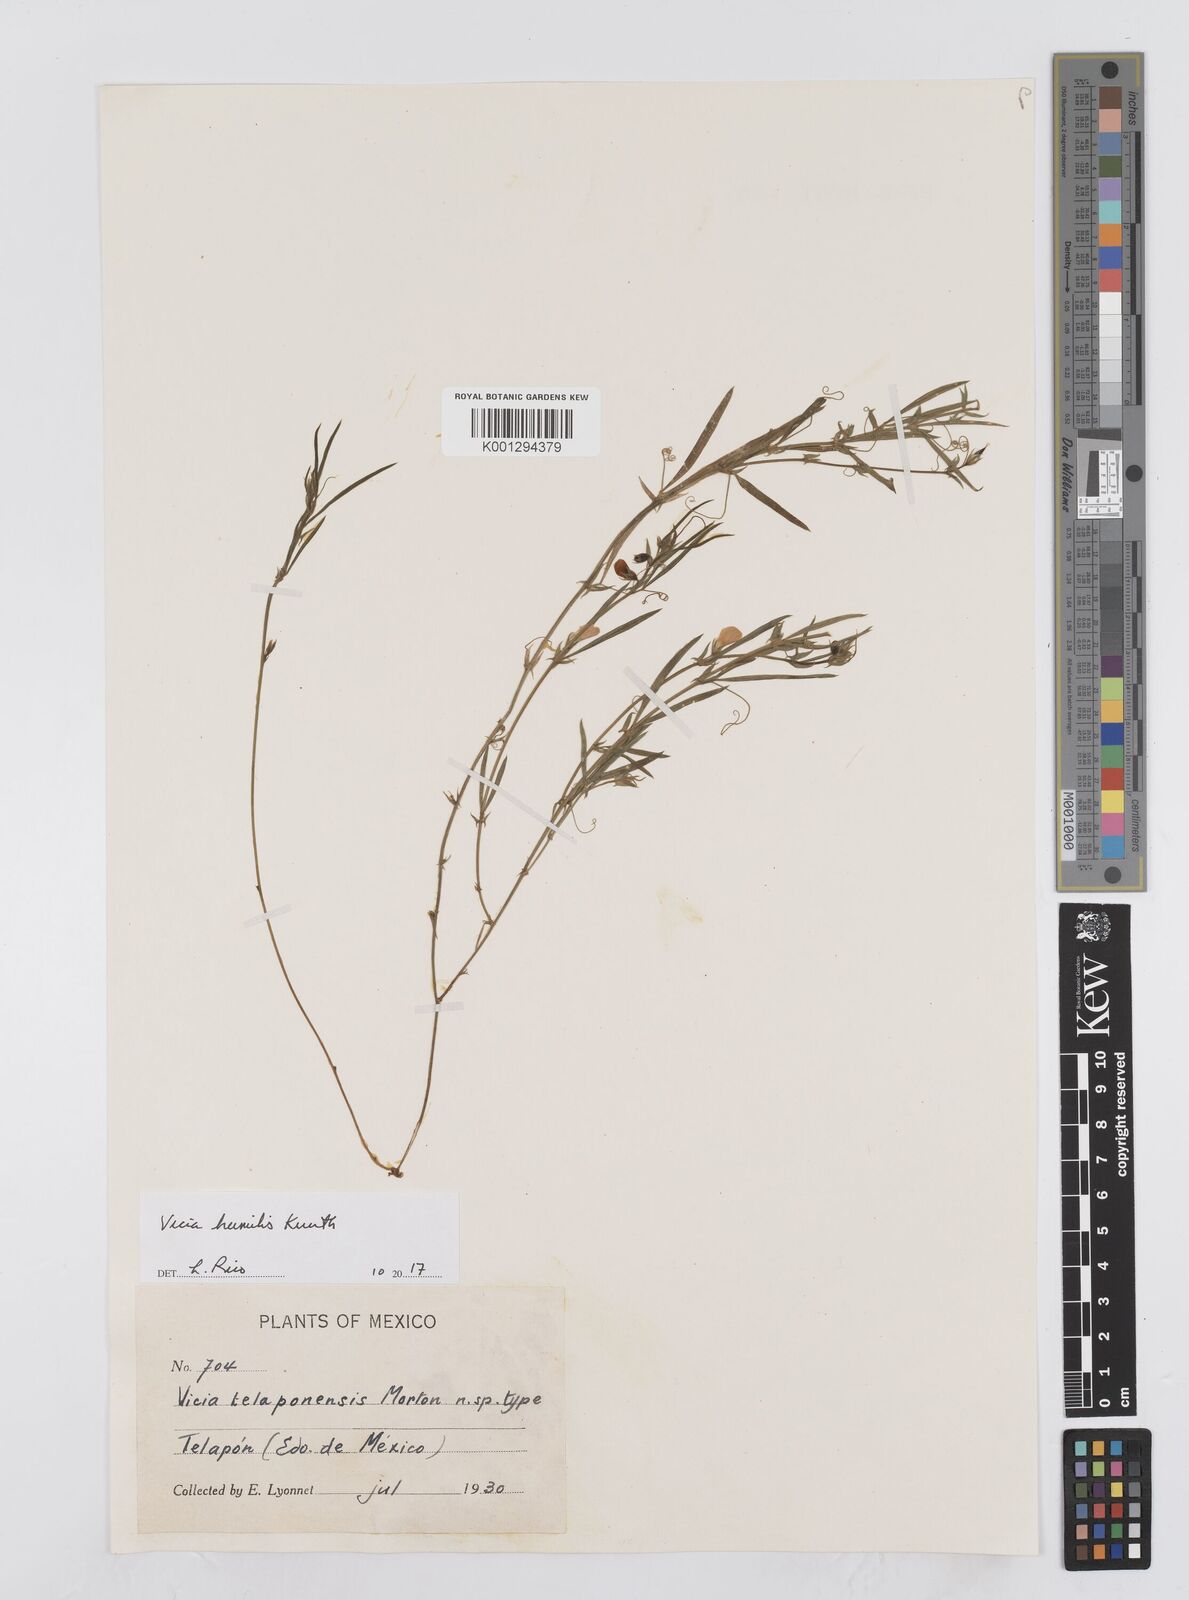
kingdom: Plantae
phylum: Tracheophyta
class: Magnoliopsida
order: Fabales
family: Fabaceae
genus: Vicia
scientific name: Vicia humilis
